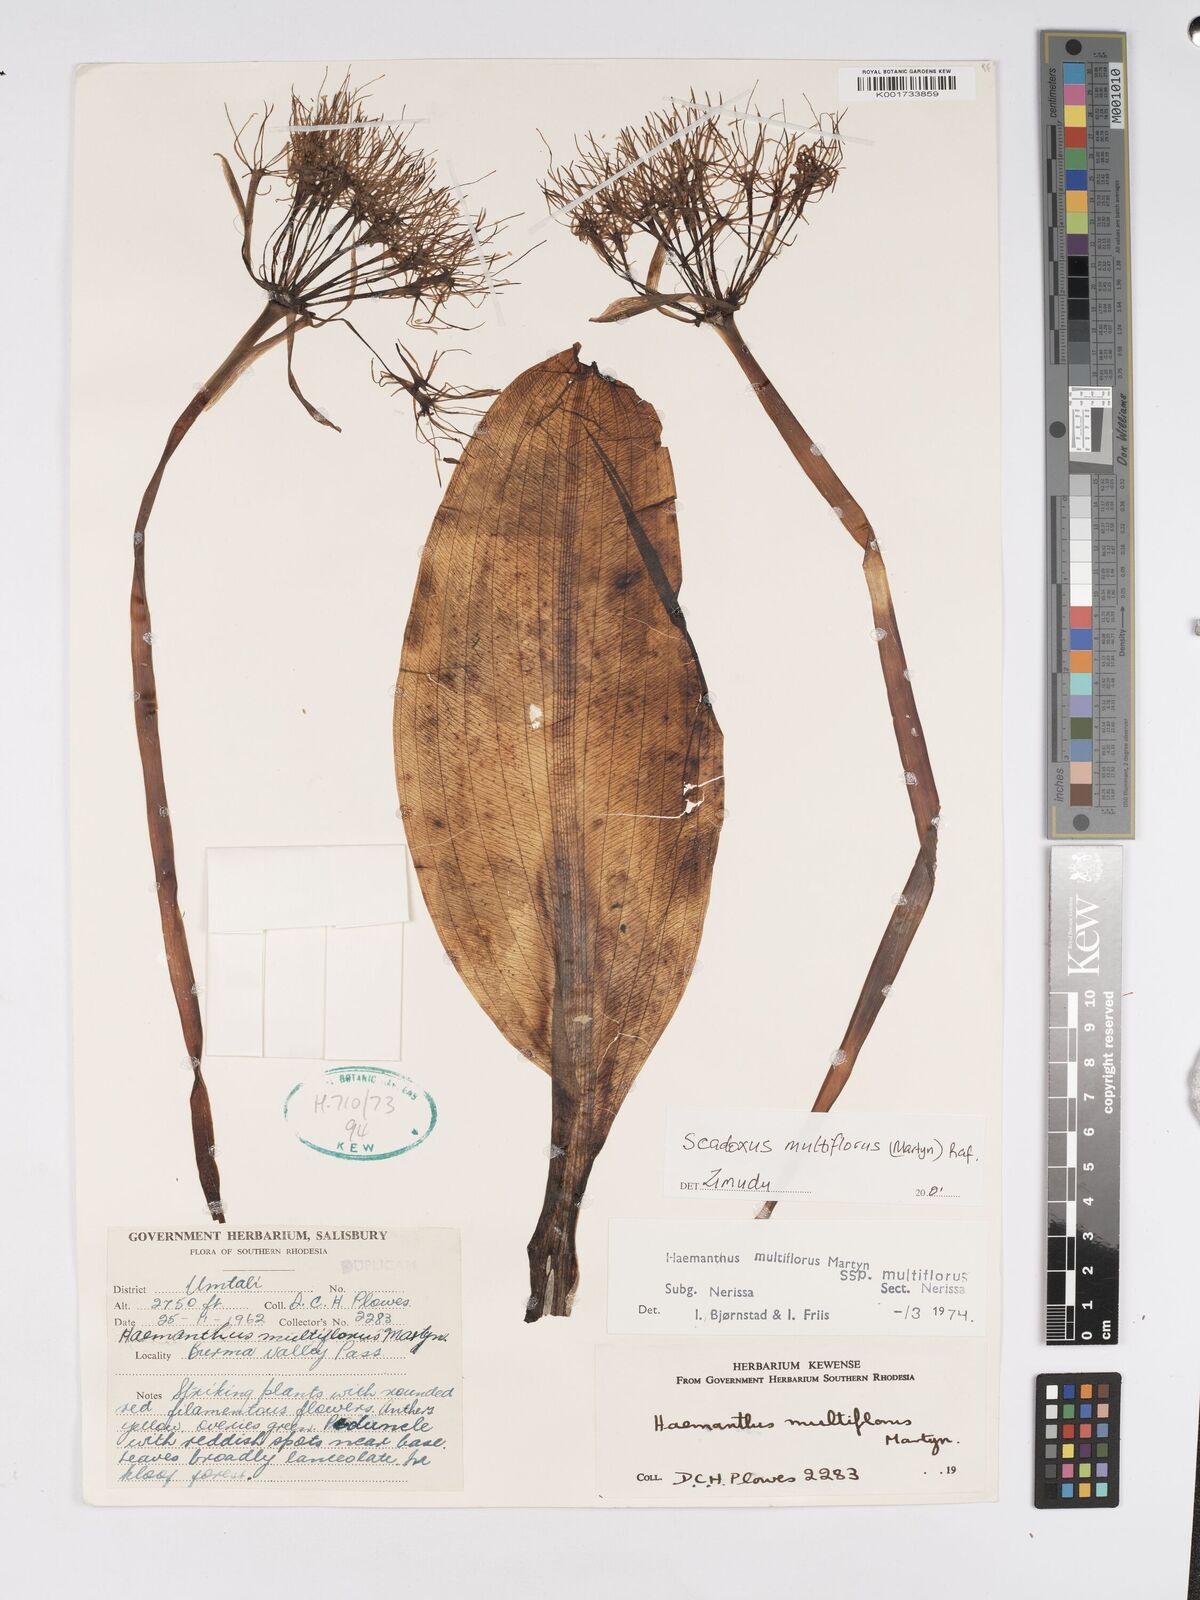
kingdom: Plantae
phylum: Tracheophyta
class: Liliopsida
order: Asparagales
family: Amaryllidaceae
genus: Scadoxus
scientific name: Scadoxus multiflorus
